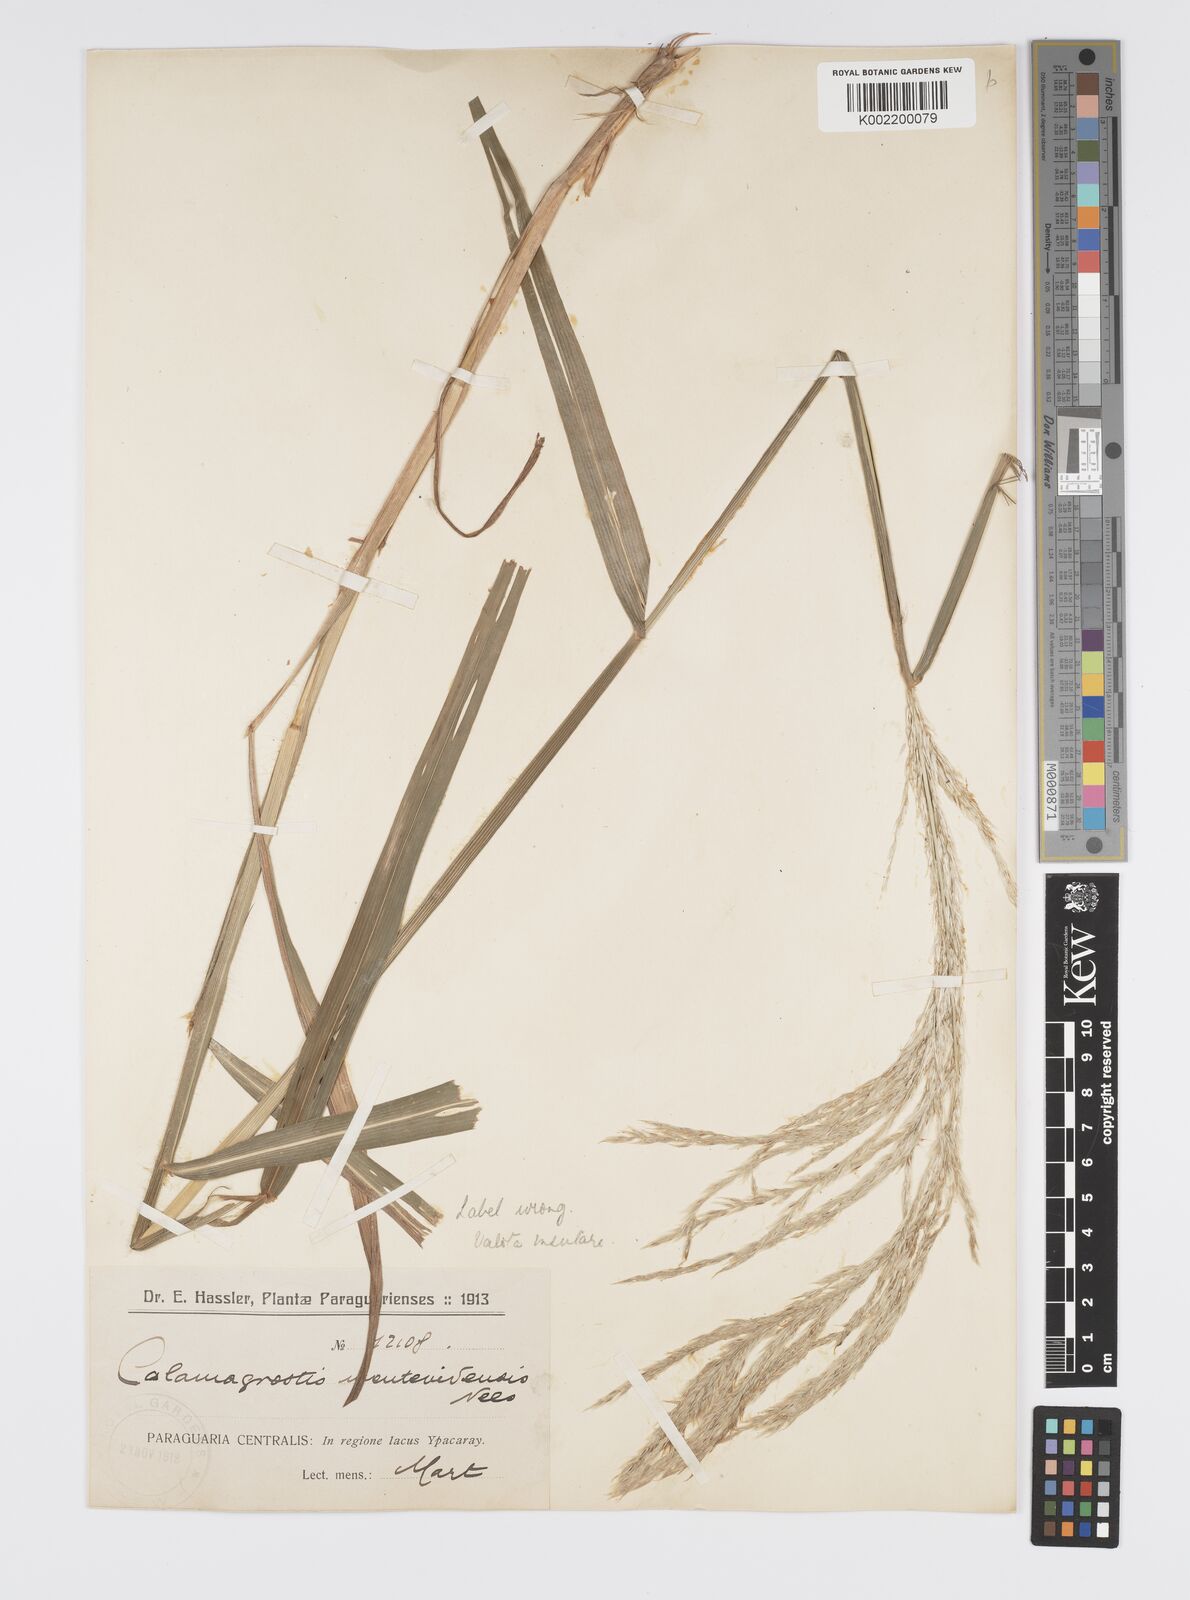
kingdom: Plantae
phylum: Tracheophyta
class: Liliopsida
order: Poales
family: Poaceae
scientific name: Poaceae
